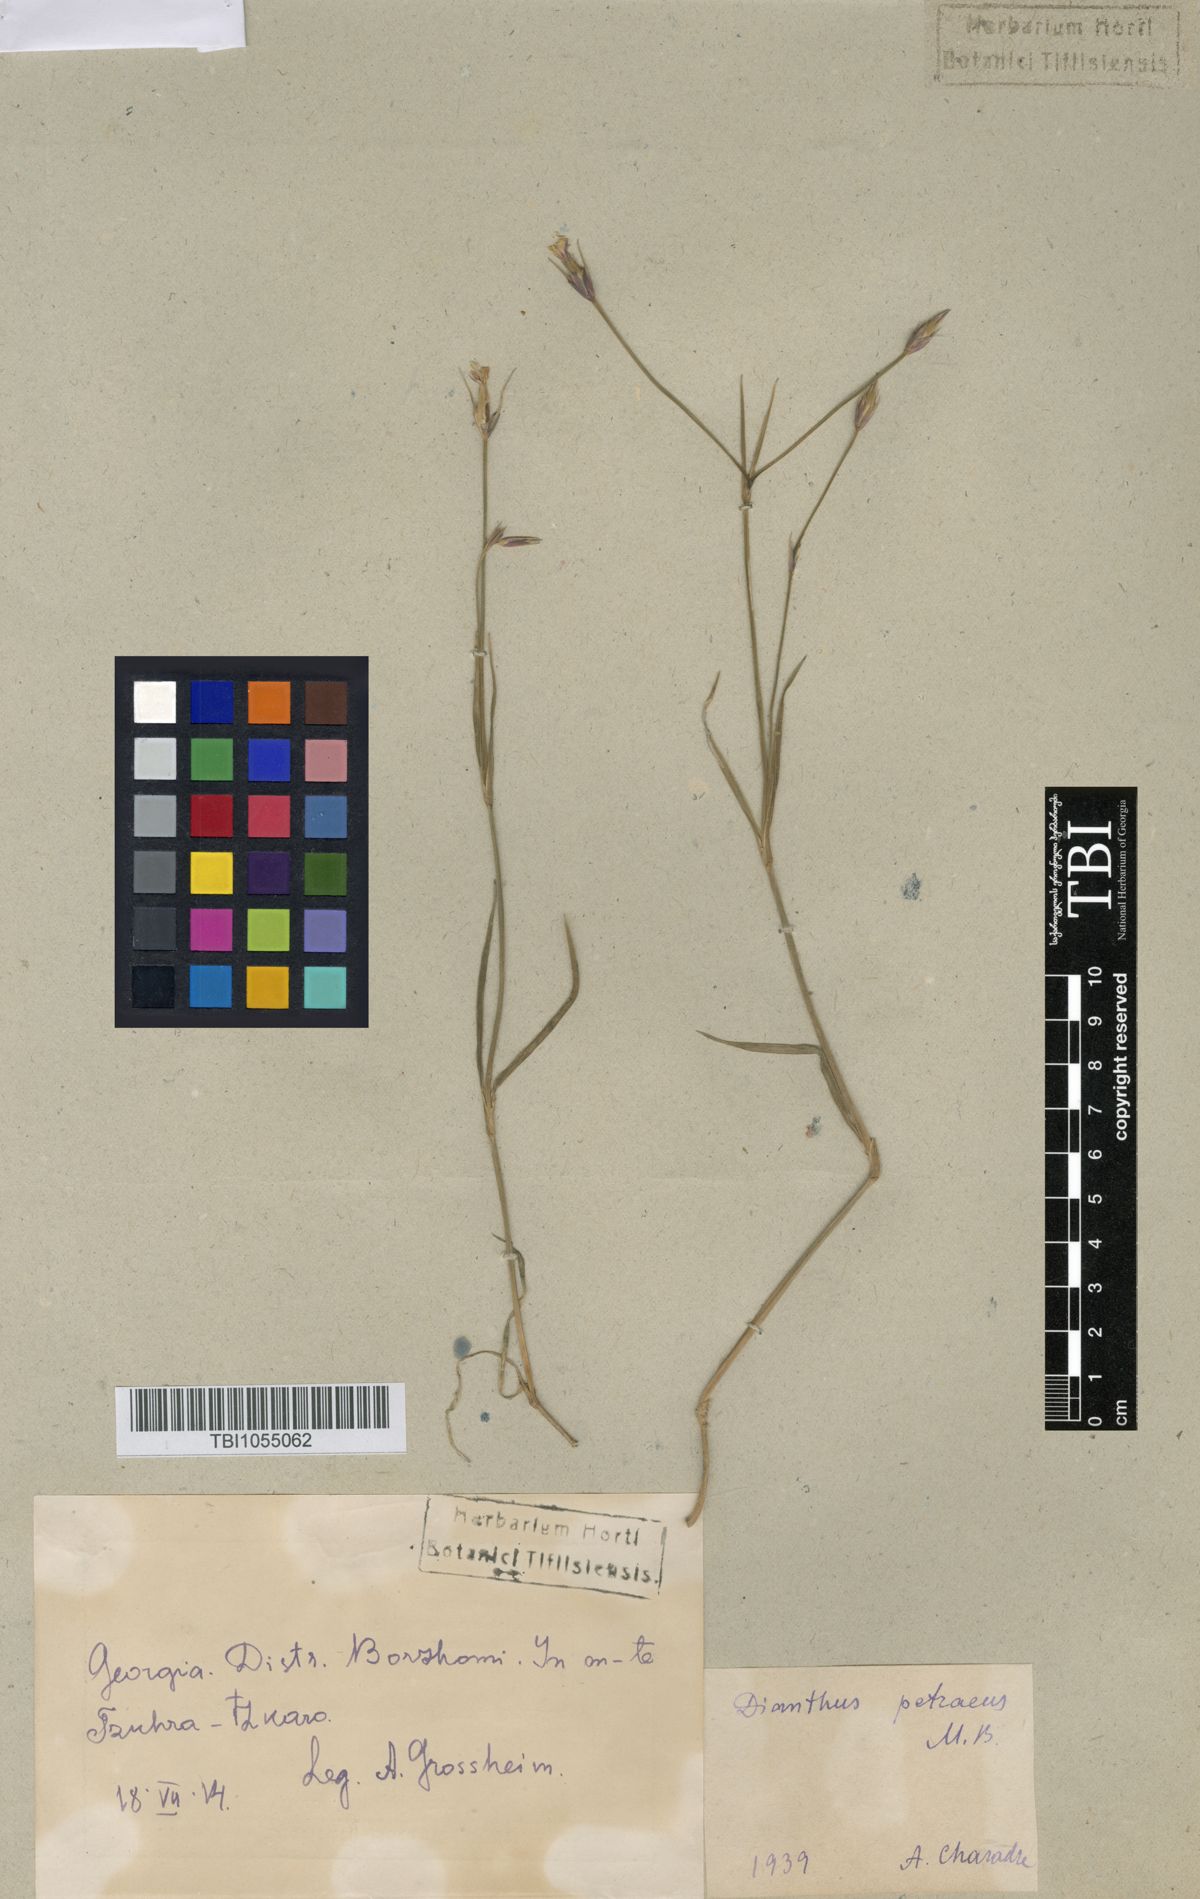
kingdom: Plantae
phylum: Tracheophyta
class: Magnoliopsida
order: Caryophyllales
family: Caryophyllaceae
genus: Dianthus
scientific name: Dianthus cretaceus
